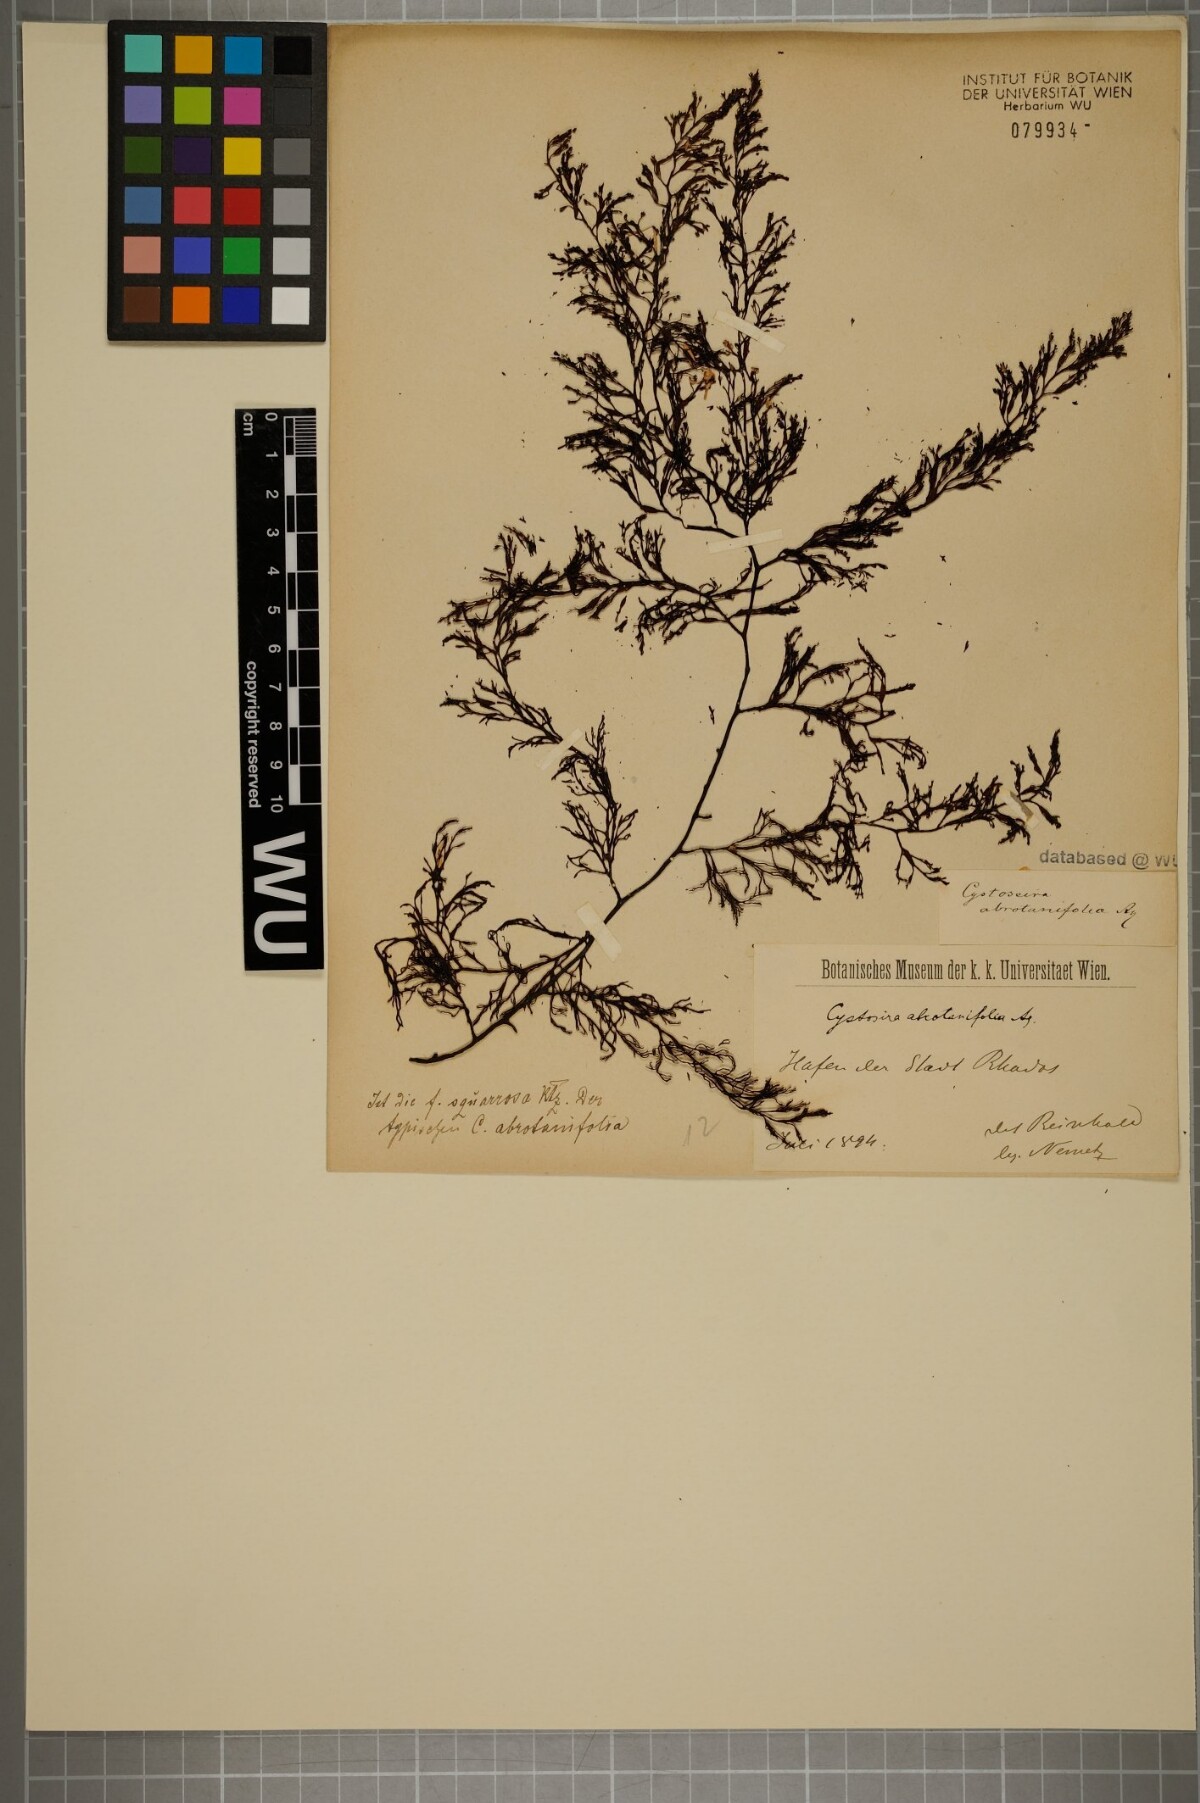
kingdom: Chromista
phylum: Ochrophyta
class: Phaeophyceae
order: Fucales
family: Sargassaceae
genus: Cystoseira
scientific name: Cystoseira foeniculacea
